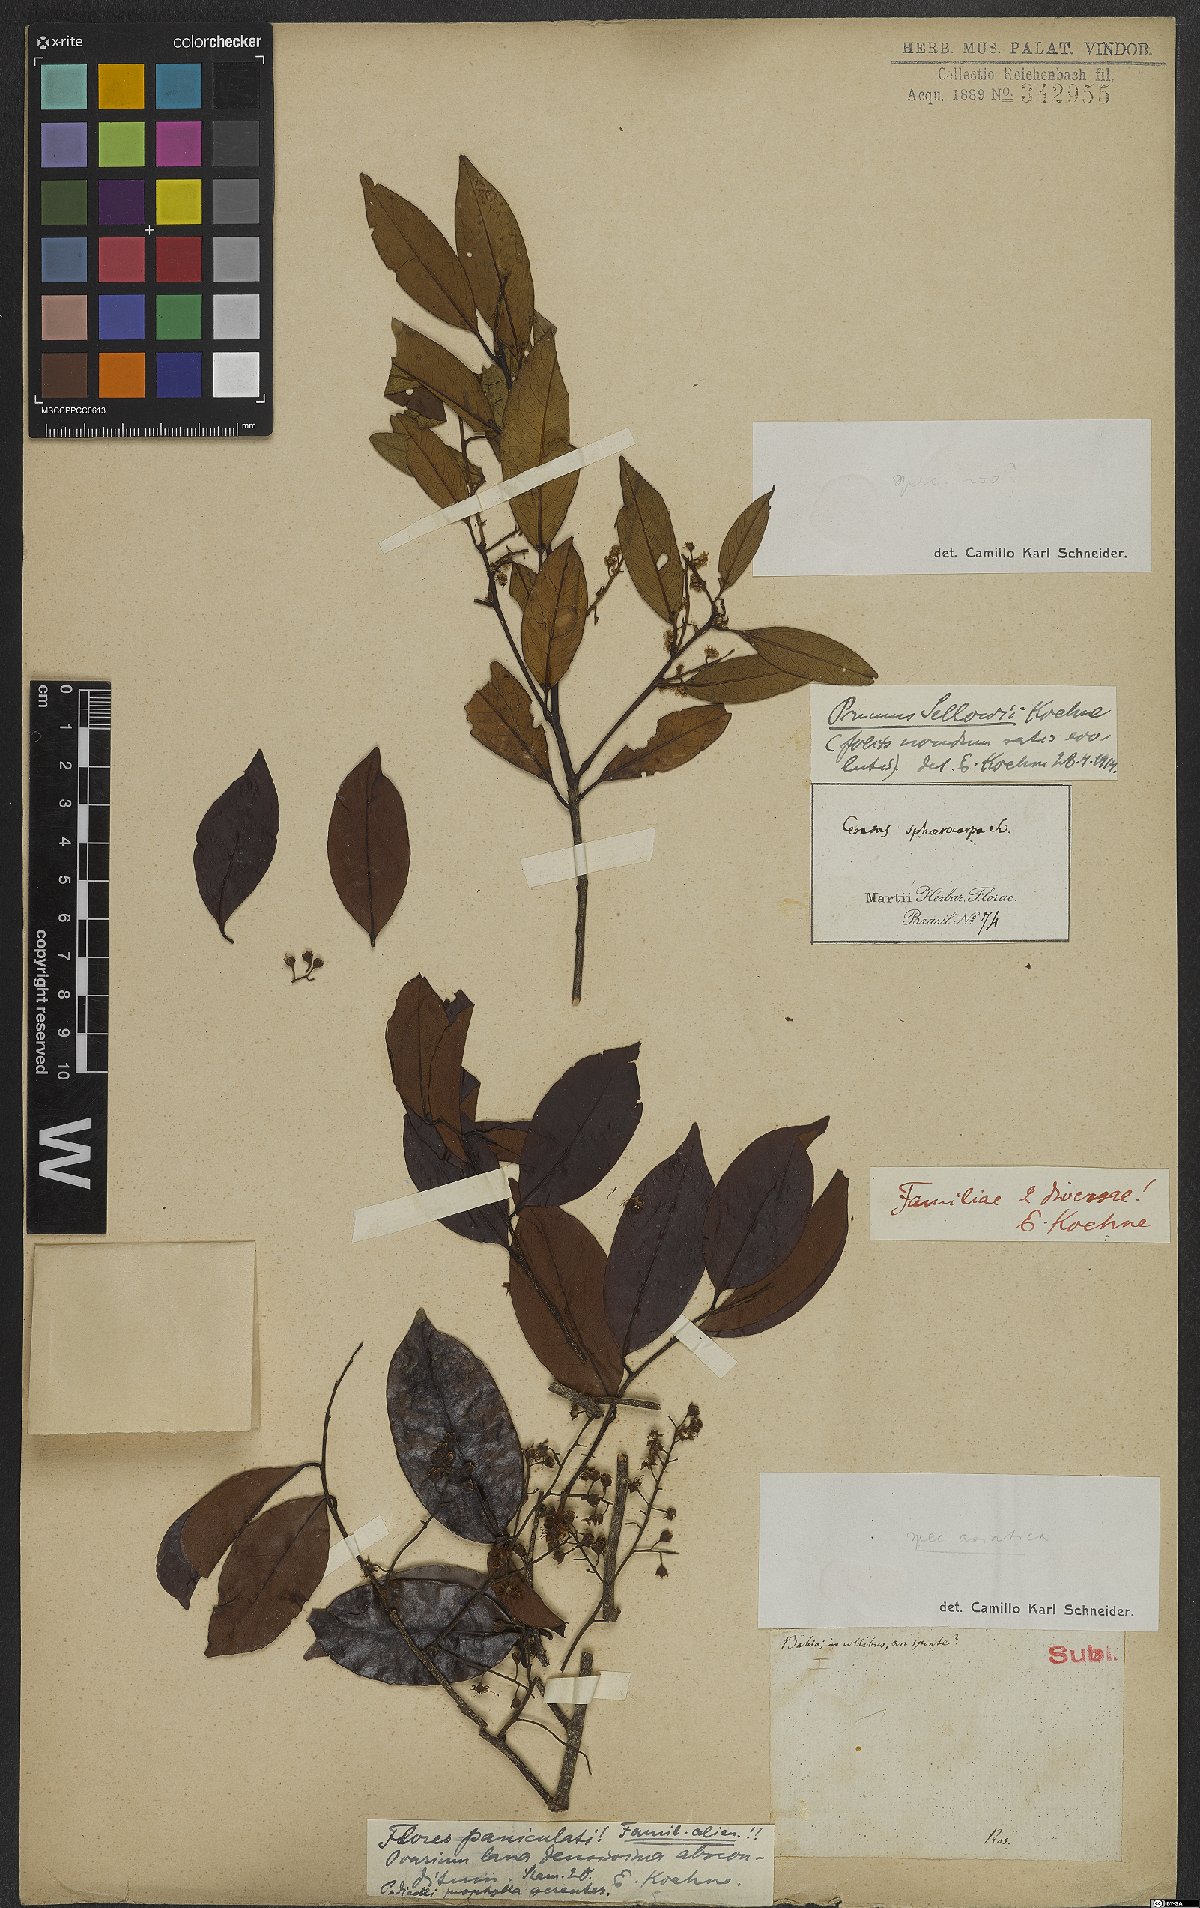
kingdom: Plantae
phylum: Tracheophyta
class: Magnoliopsida
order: Rosales
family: Rosaceae
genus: Prunus
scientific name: Prunus reflexa
